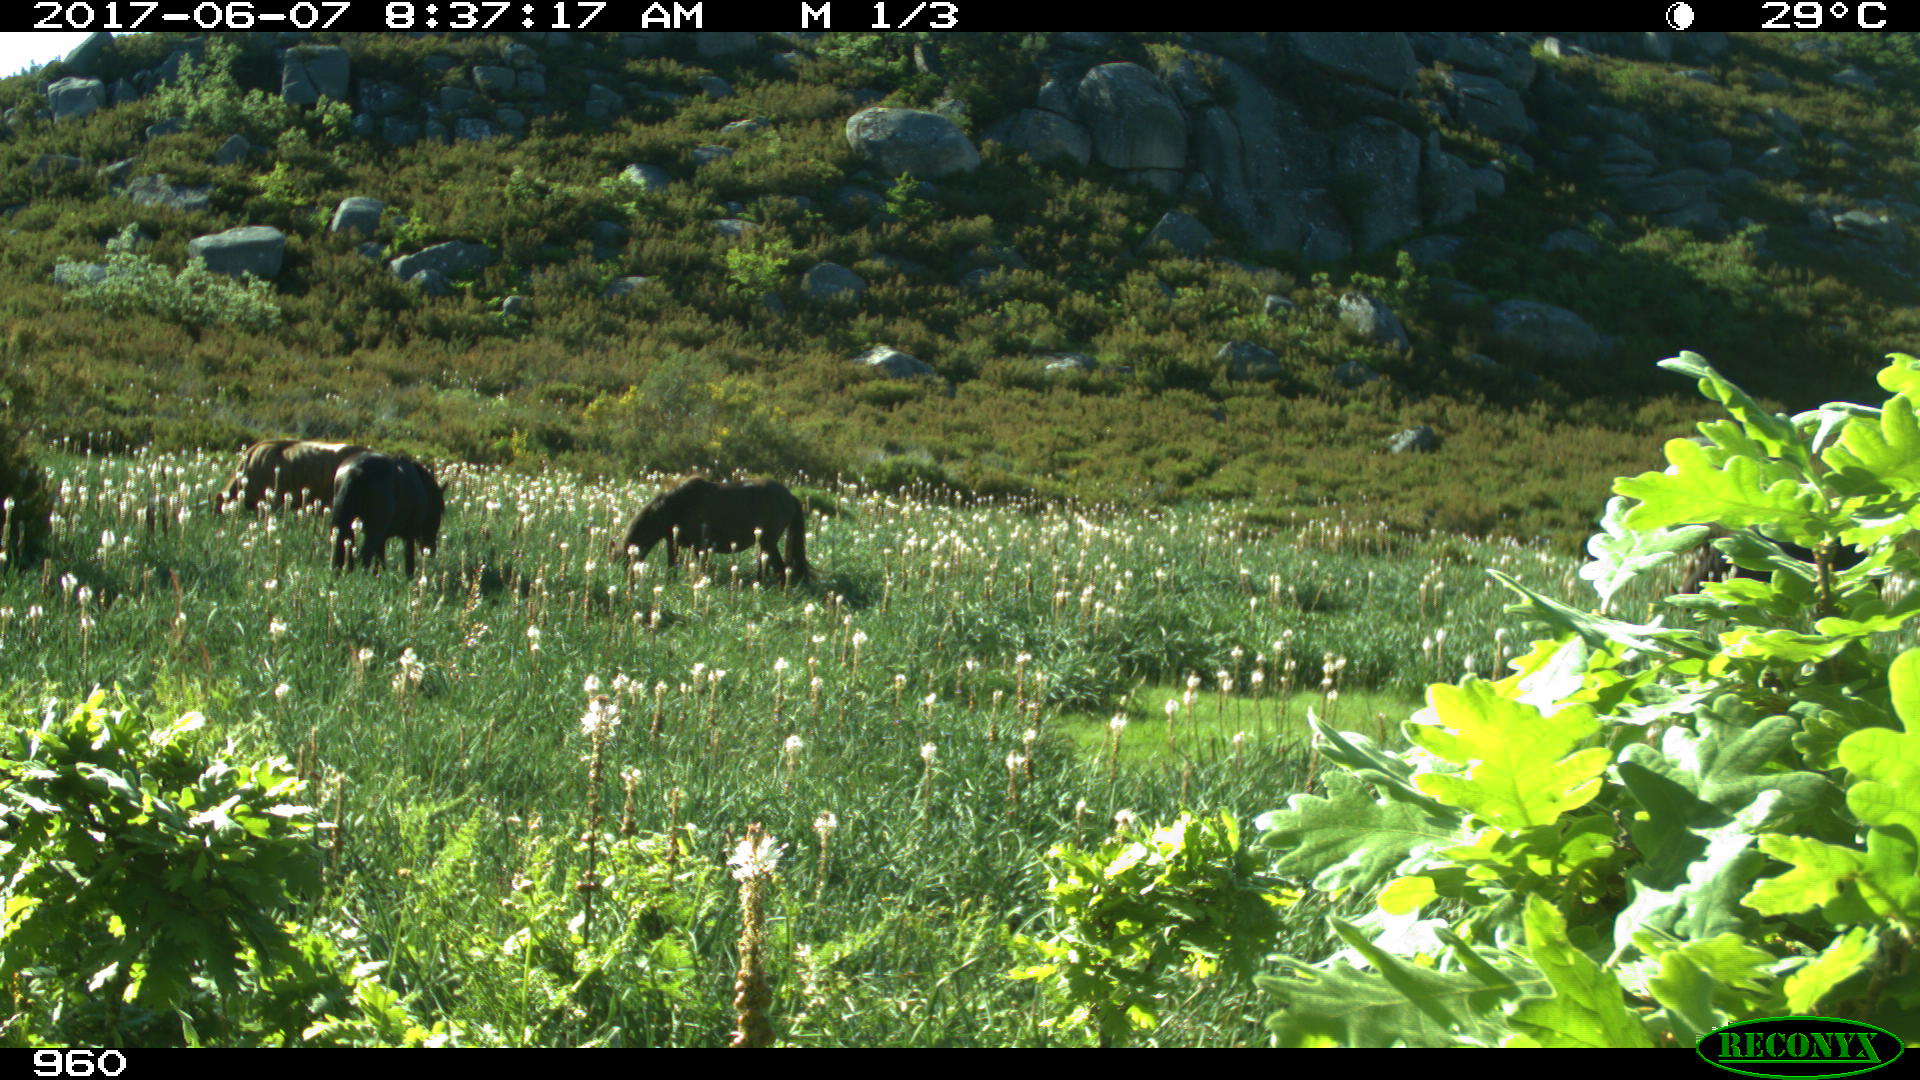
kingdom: Animalia
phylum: Chordata
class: Mammalia
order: Perissodactyla
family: Equidae
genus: Equus
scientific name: Equus caballus
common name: Horse
